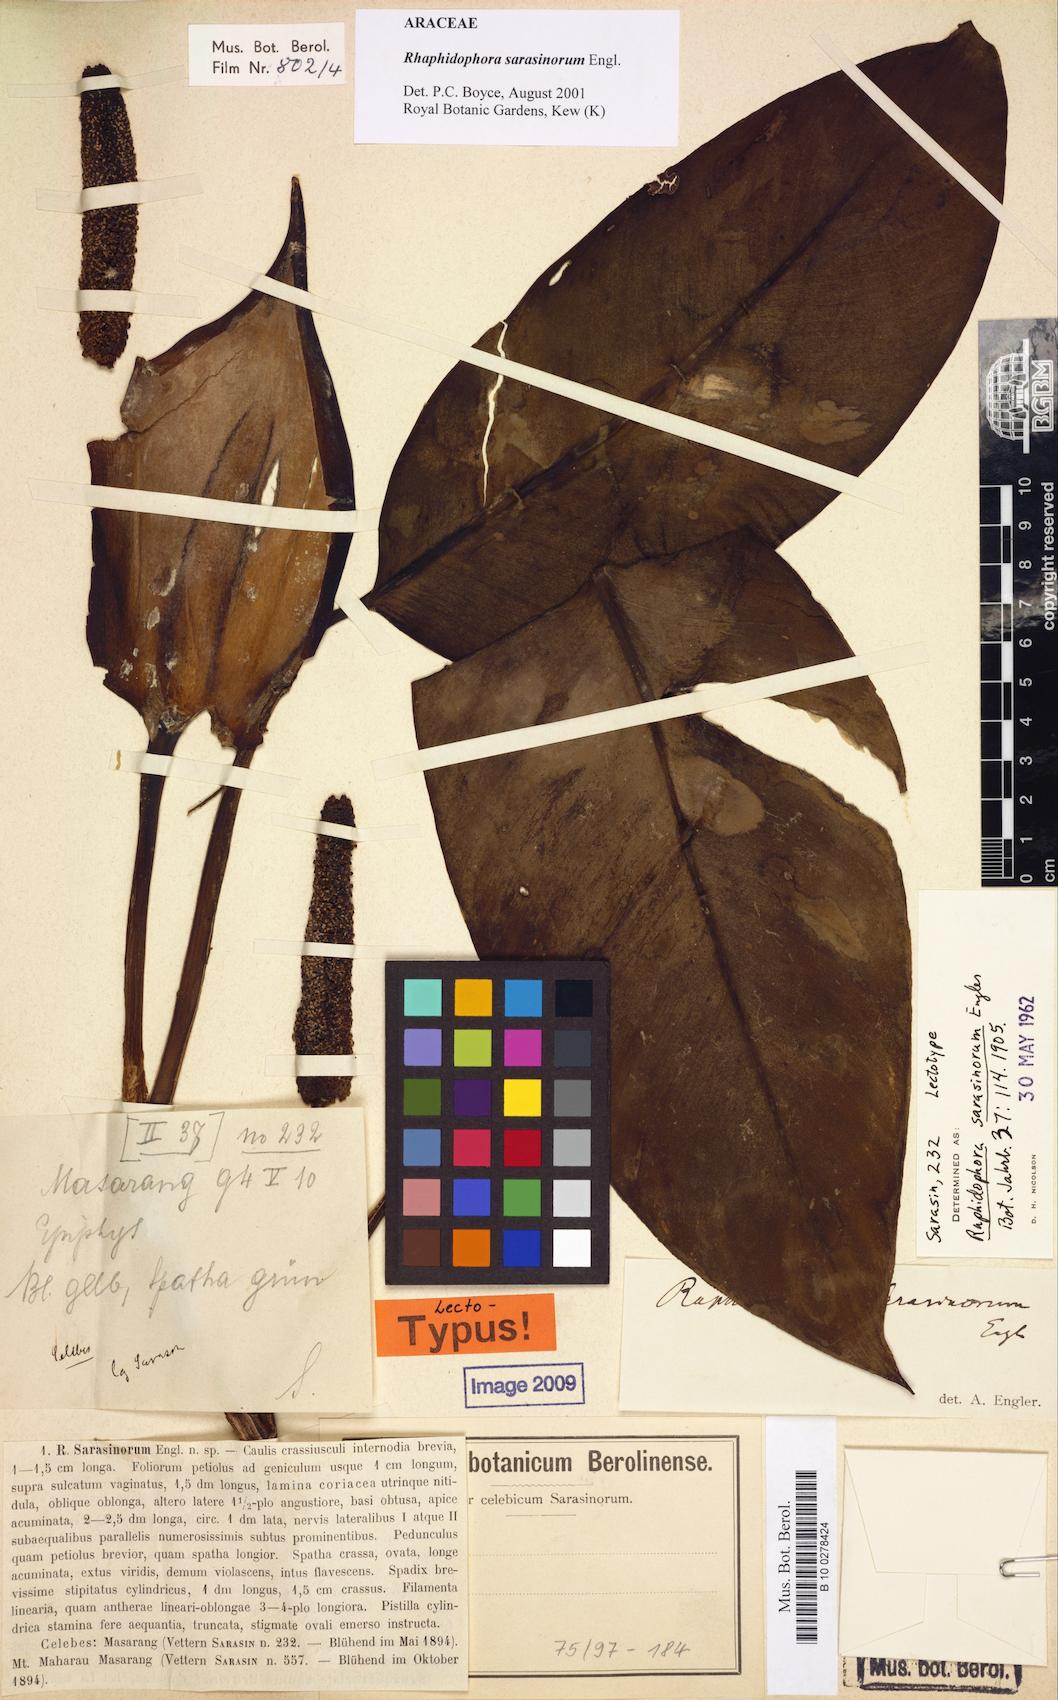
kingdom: Plantae
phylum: Tracheophyta
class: Liliopsida
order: Alismatales
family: Araceae
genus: Rhaphidophora
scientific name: Rhaphidophora sarasinorum
